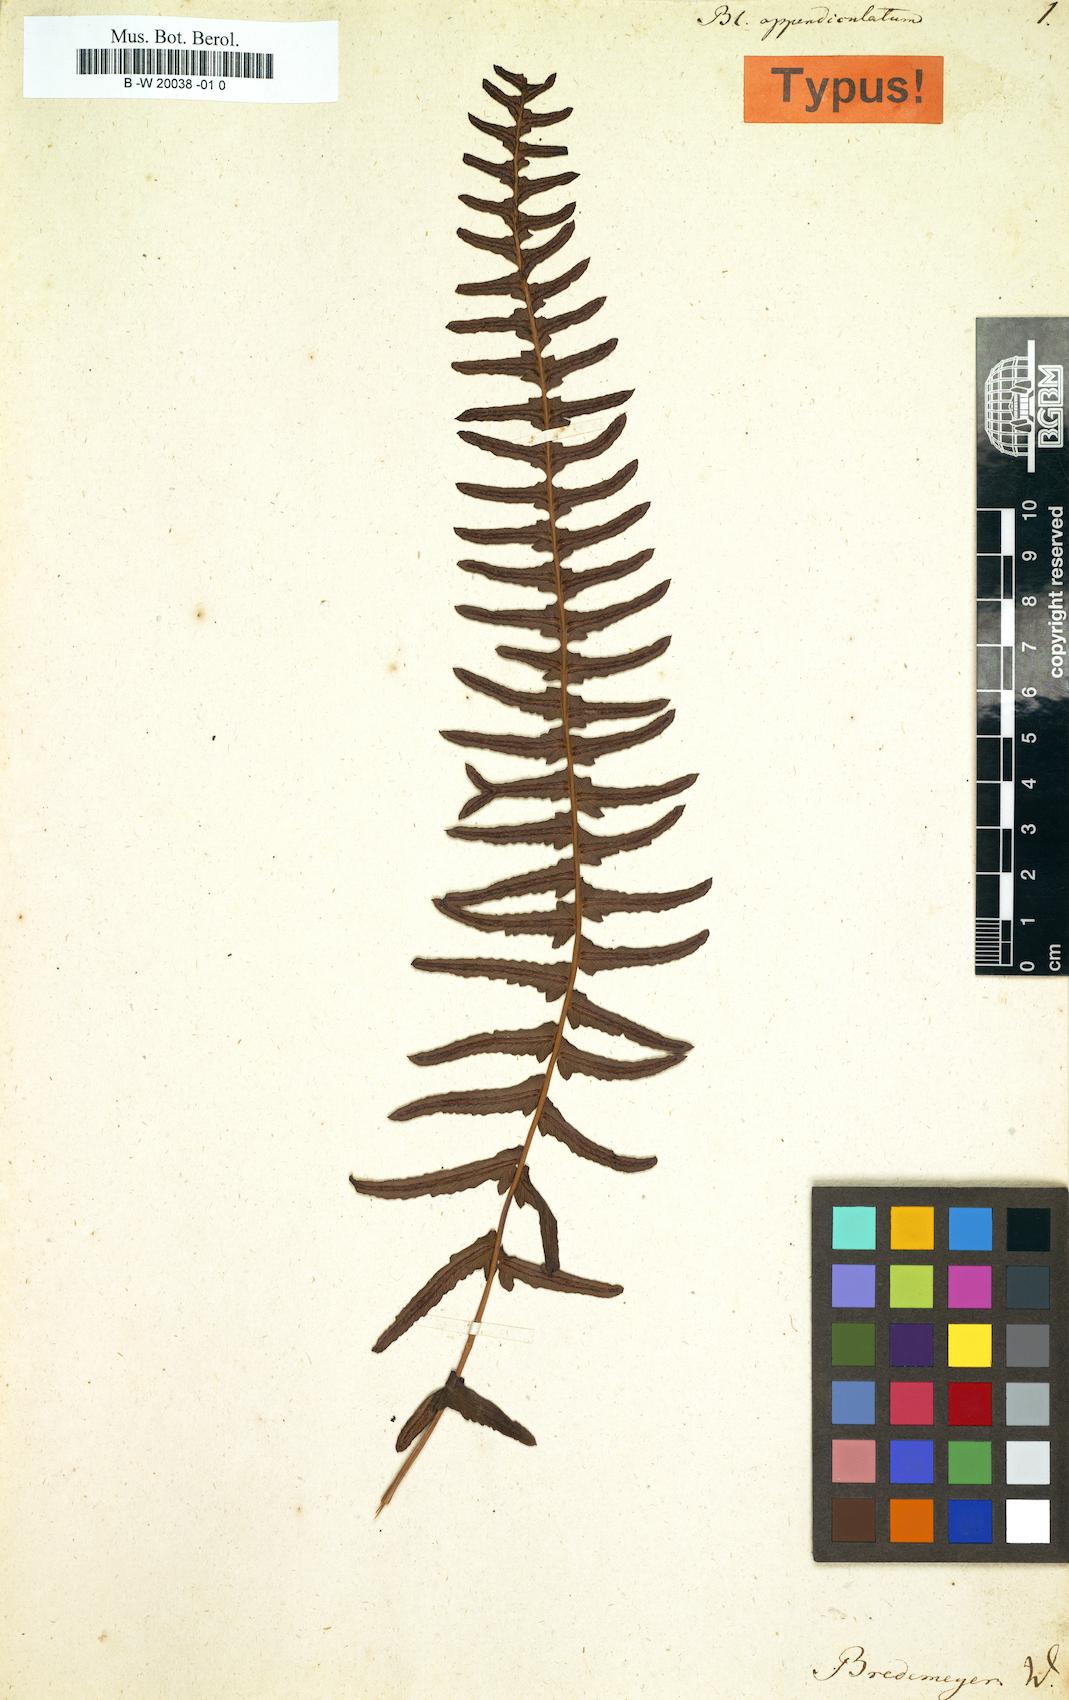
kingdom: Plantae
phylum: Tracheophyta
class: Polypodiopsida
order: Polypodiales
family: Blechnaceae
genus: Blechnum
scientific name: Blechnum appendiculatum
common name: Palm fern
